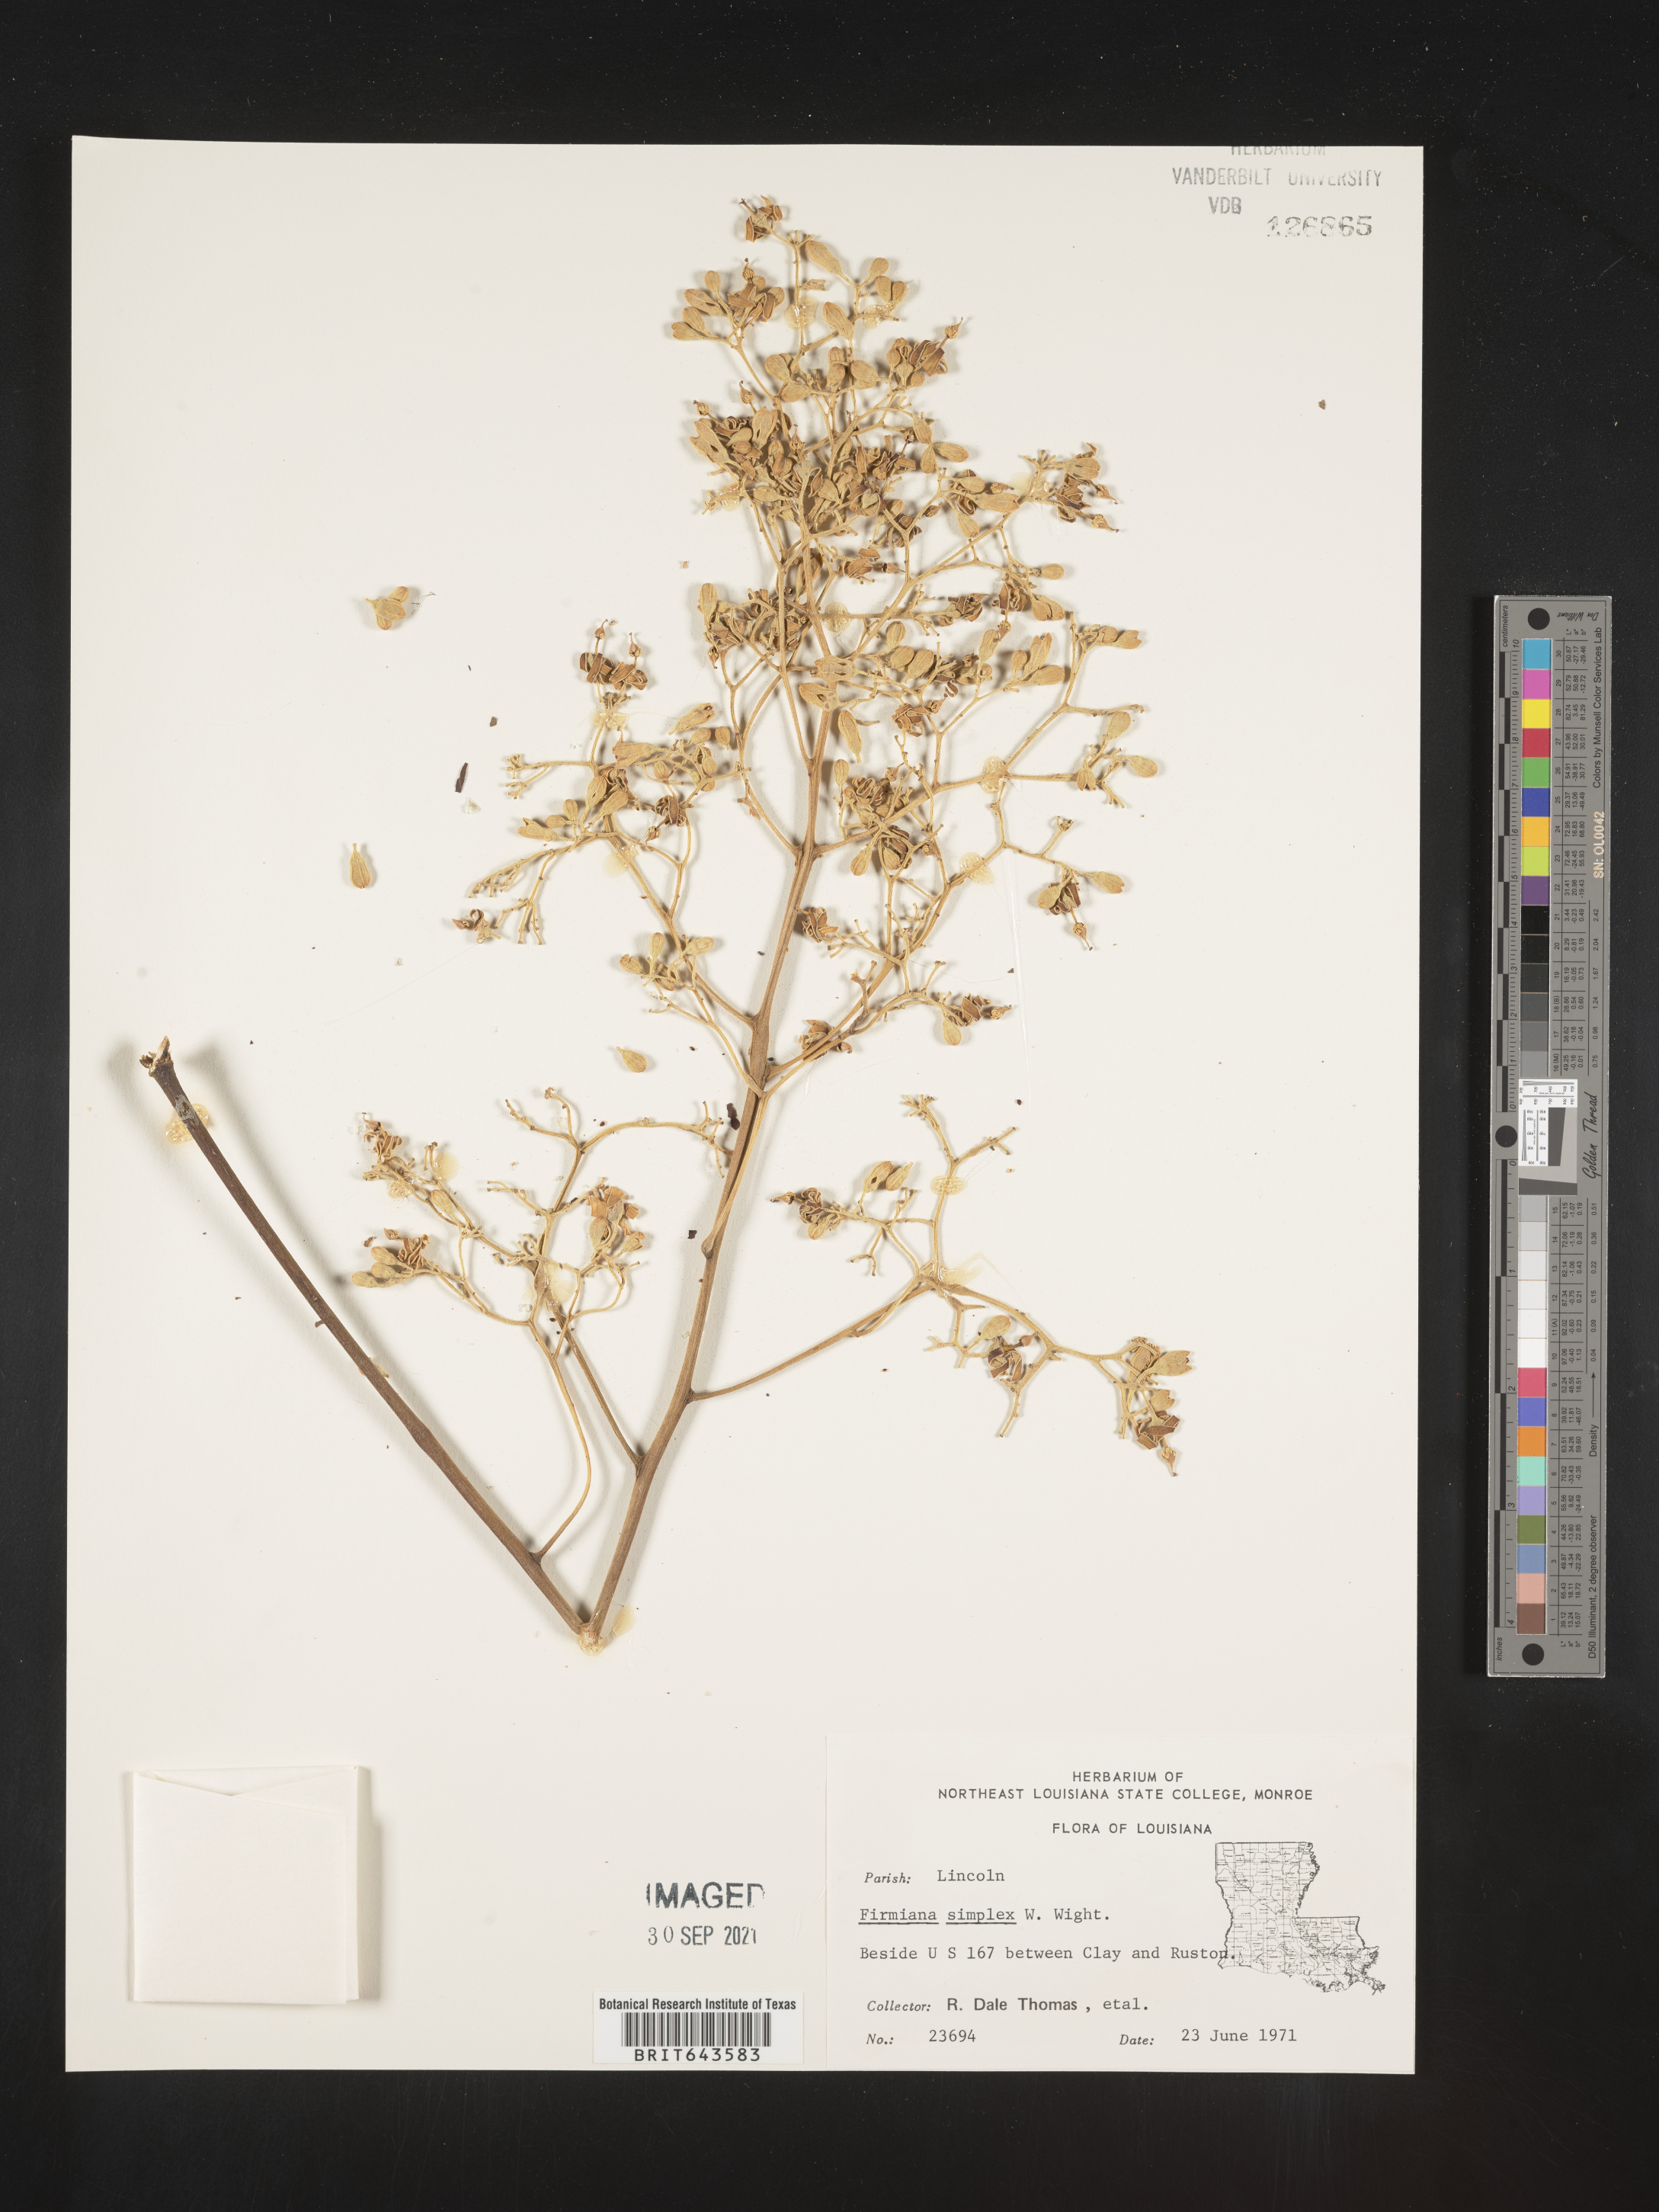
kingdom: Plantae
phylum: Tracheophyta
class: Magnoliopsida
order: Malvales
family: Malvaceae
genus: Firmiana
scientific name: Firmiana
